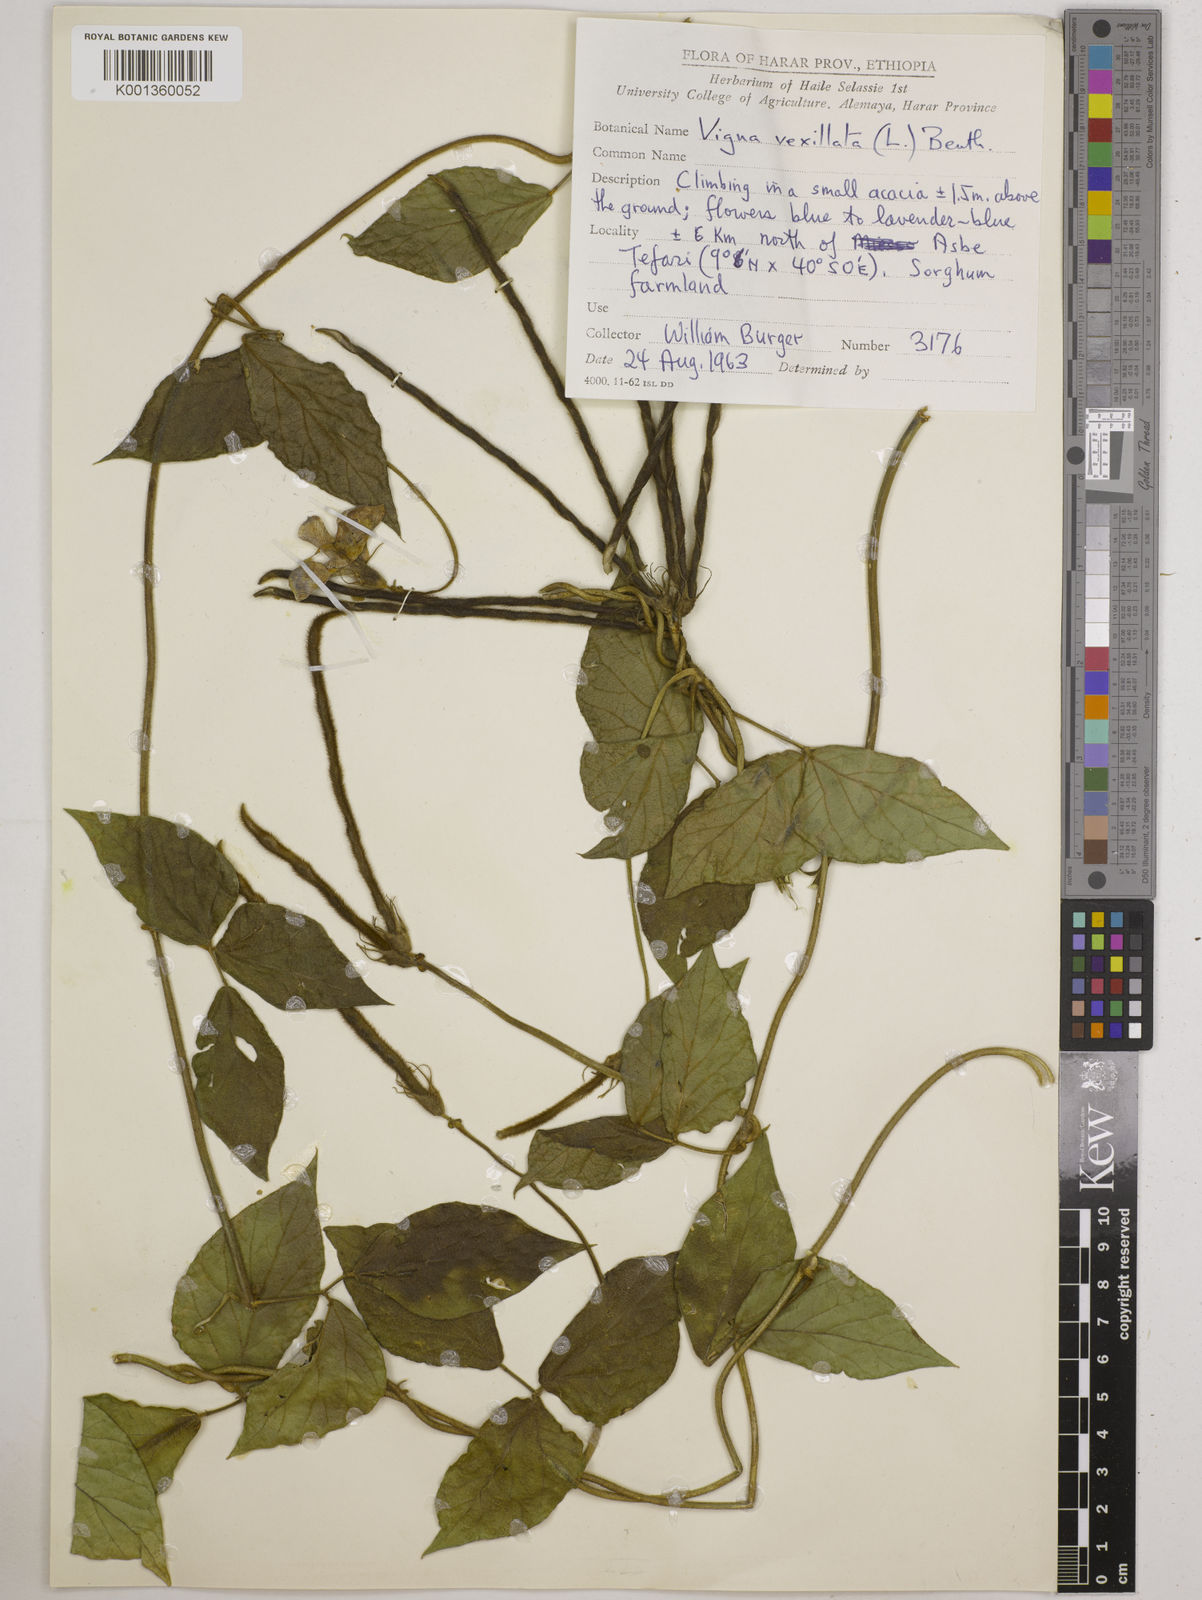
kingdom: Plantae
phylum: Tracheophyta
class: Magnoliopsida
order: Fabales
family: Fabaceae
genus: Vigna
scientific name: Vigna vexillata
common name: Zombi pea
